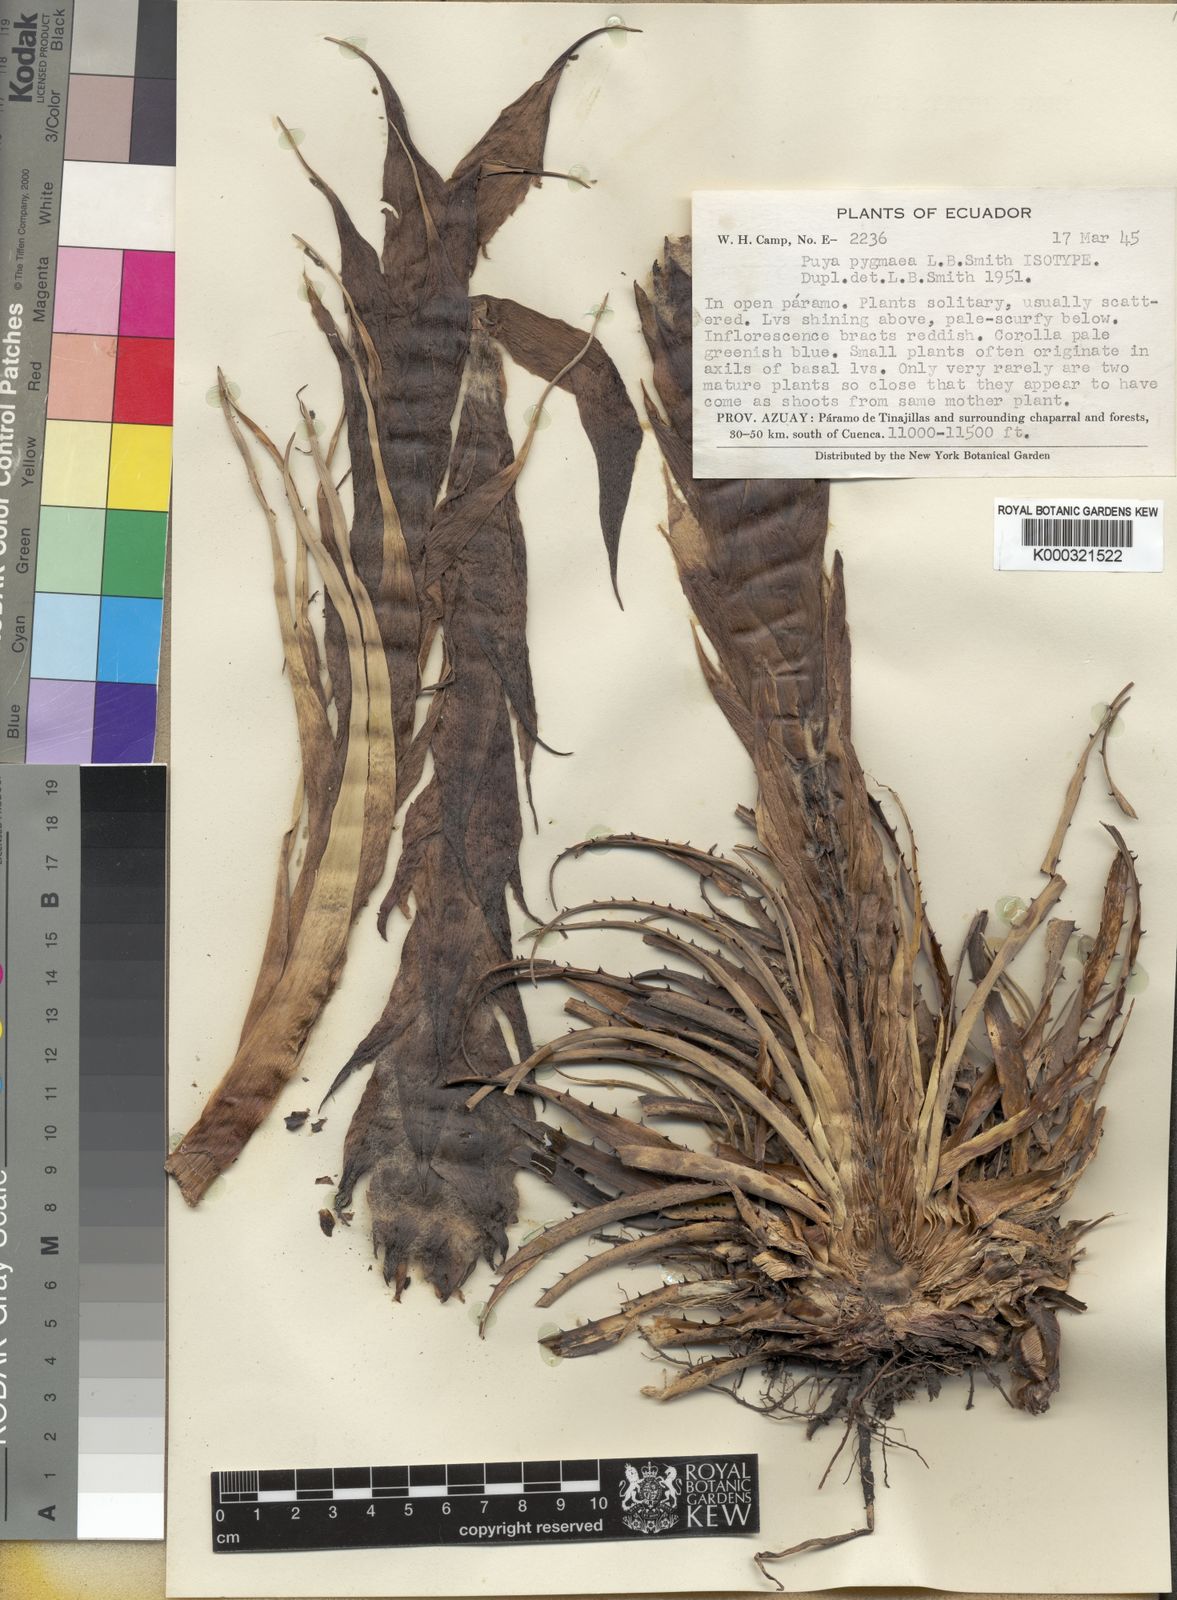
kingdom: Plantae
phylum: Tracheophyta
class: Liliopsida
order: Poales
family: Bromeliaceae
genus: Puya
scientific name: Puya pygmaea
